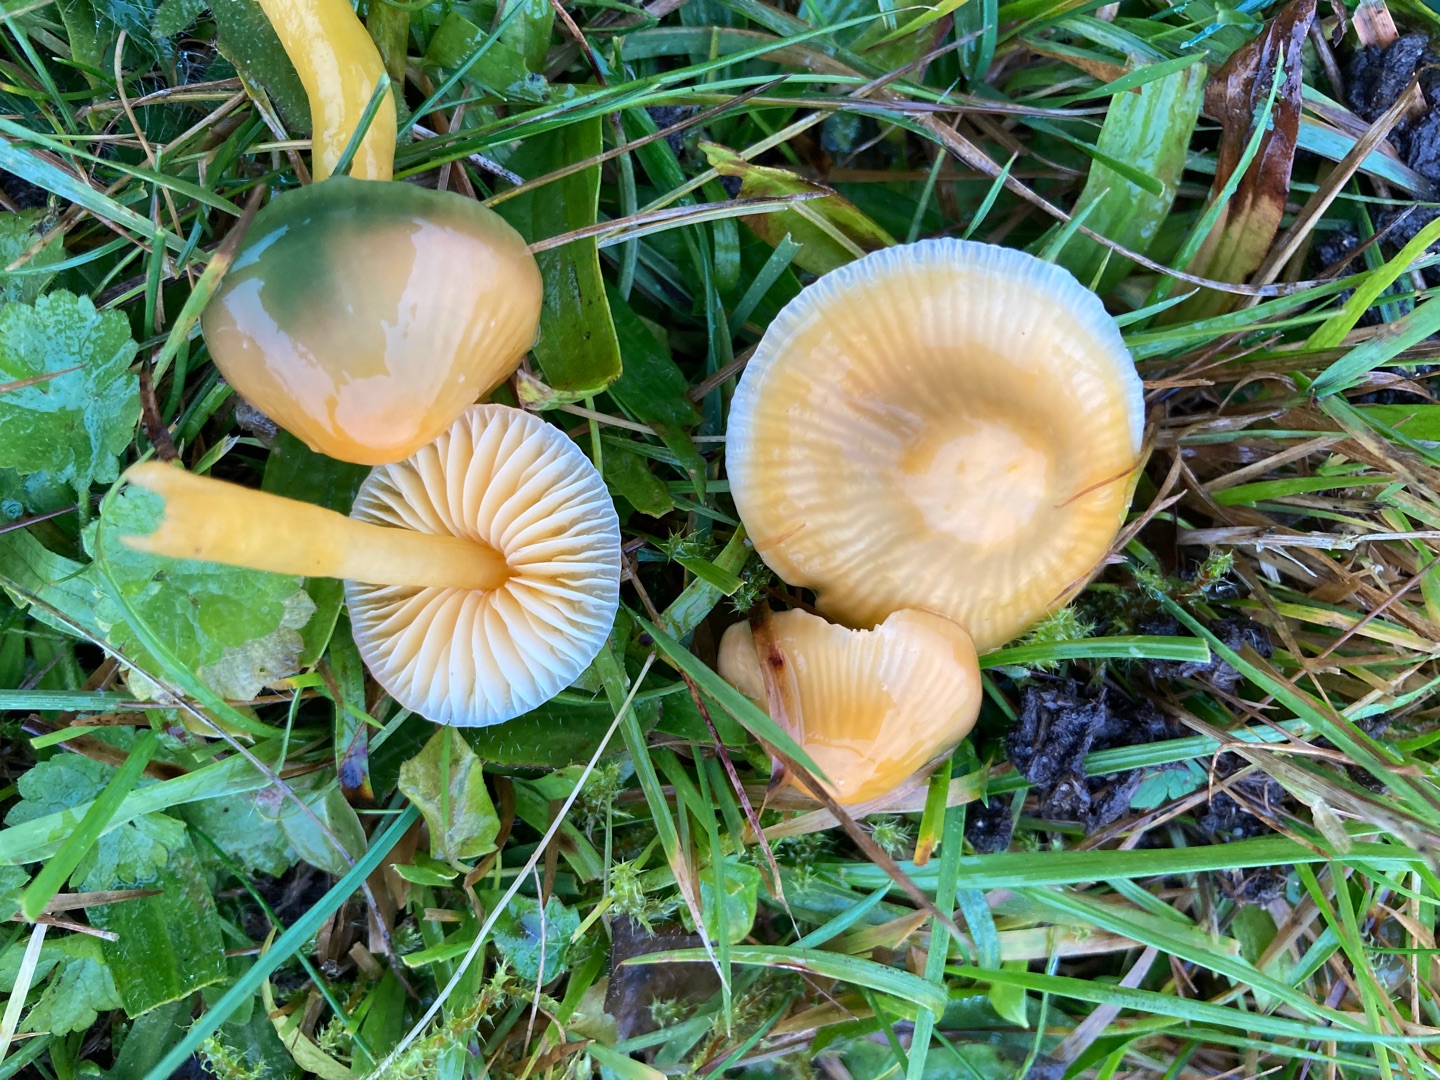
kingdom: Fungi
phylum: Basidiomycota
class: Agaricomycetes
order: Agaricales
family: Hygrophoraceae
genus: Gliophorus
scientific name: Gliophorus psittacinus
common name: Papegøje-vokshat
